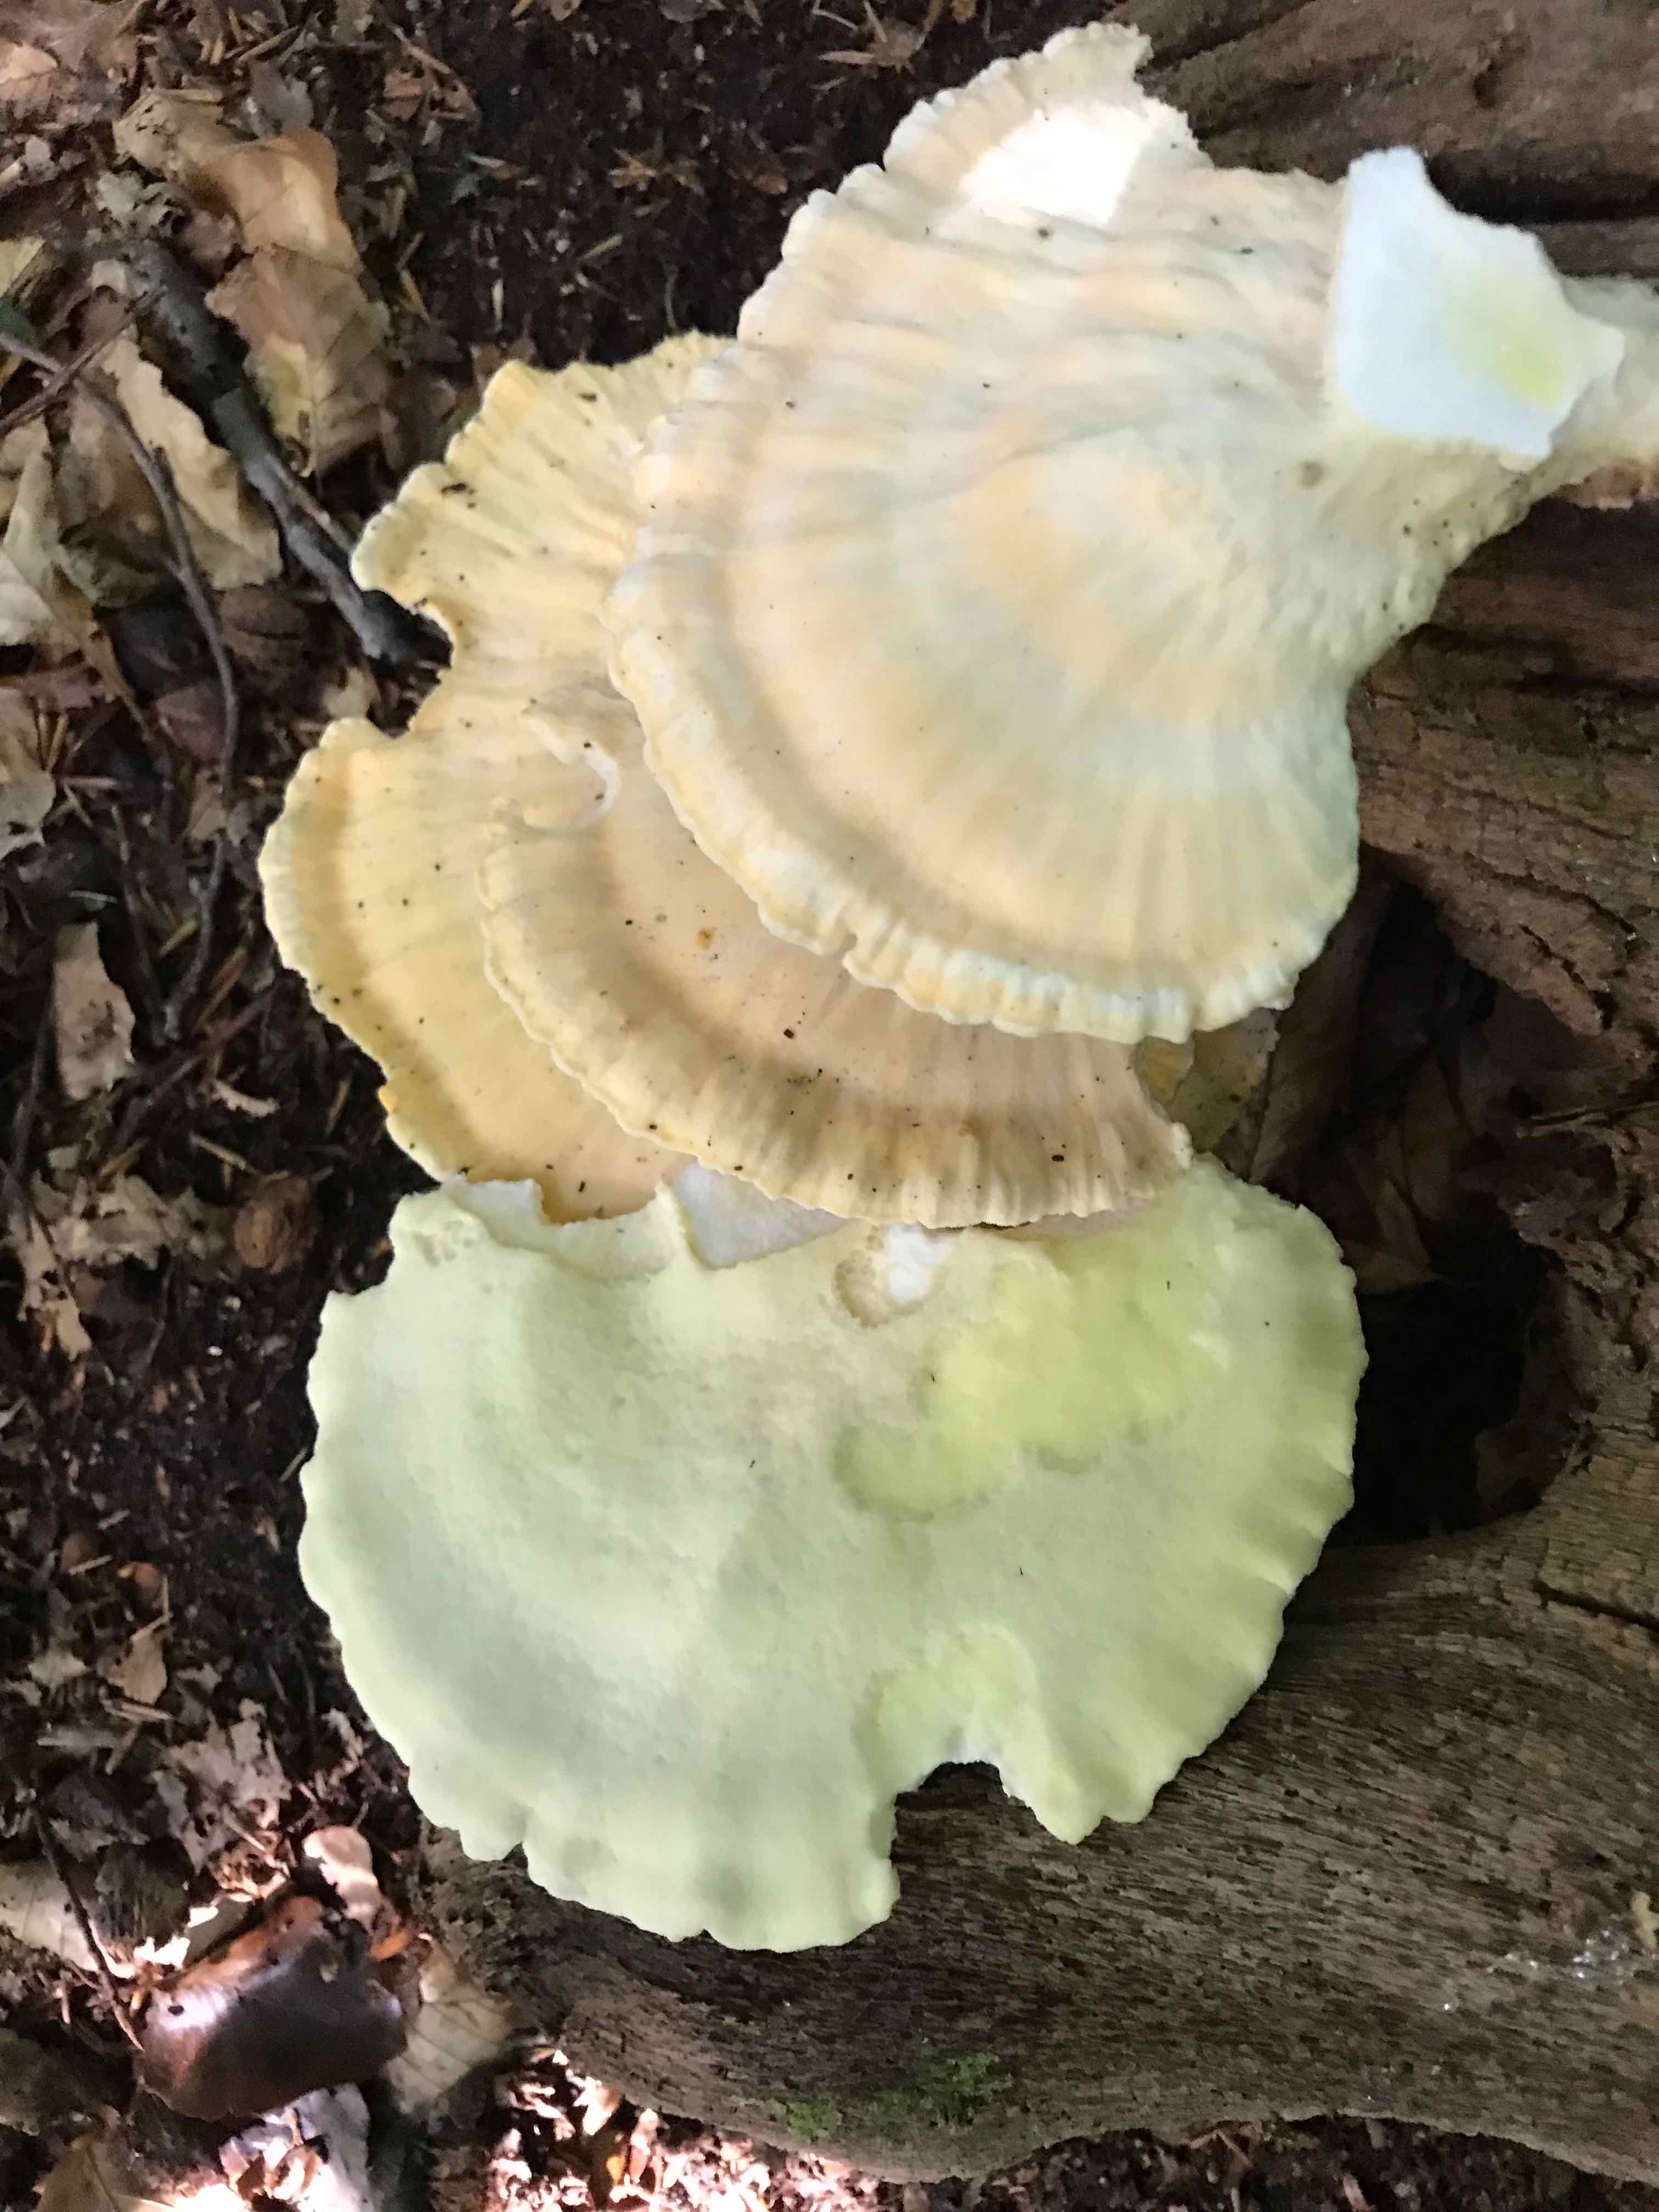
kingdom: Fungi
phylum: Basidiomycota
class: Agaricomycetes
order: Polyporales
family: Laetiporaceae
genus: Laetiporus
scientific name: Laetiporus sulphureus
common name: svovlporesvamp
